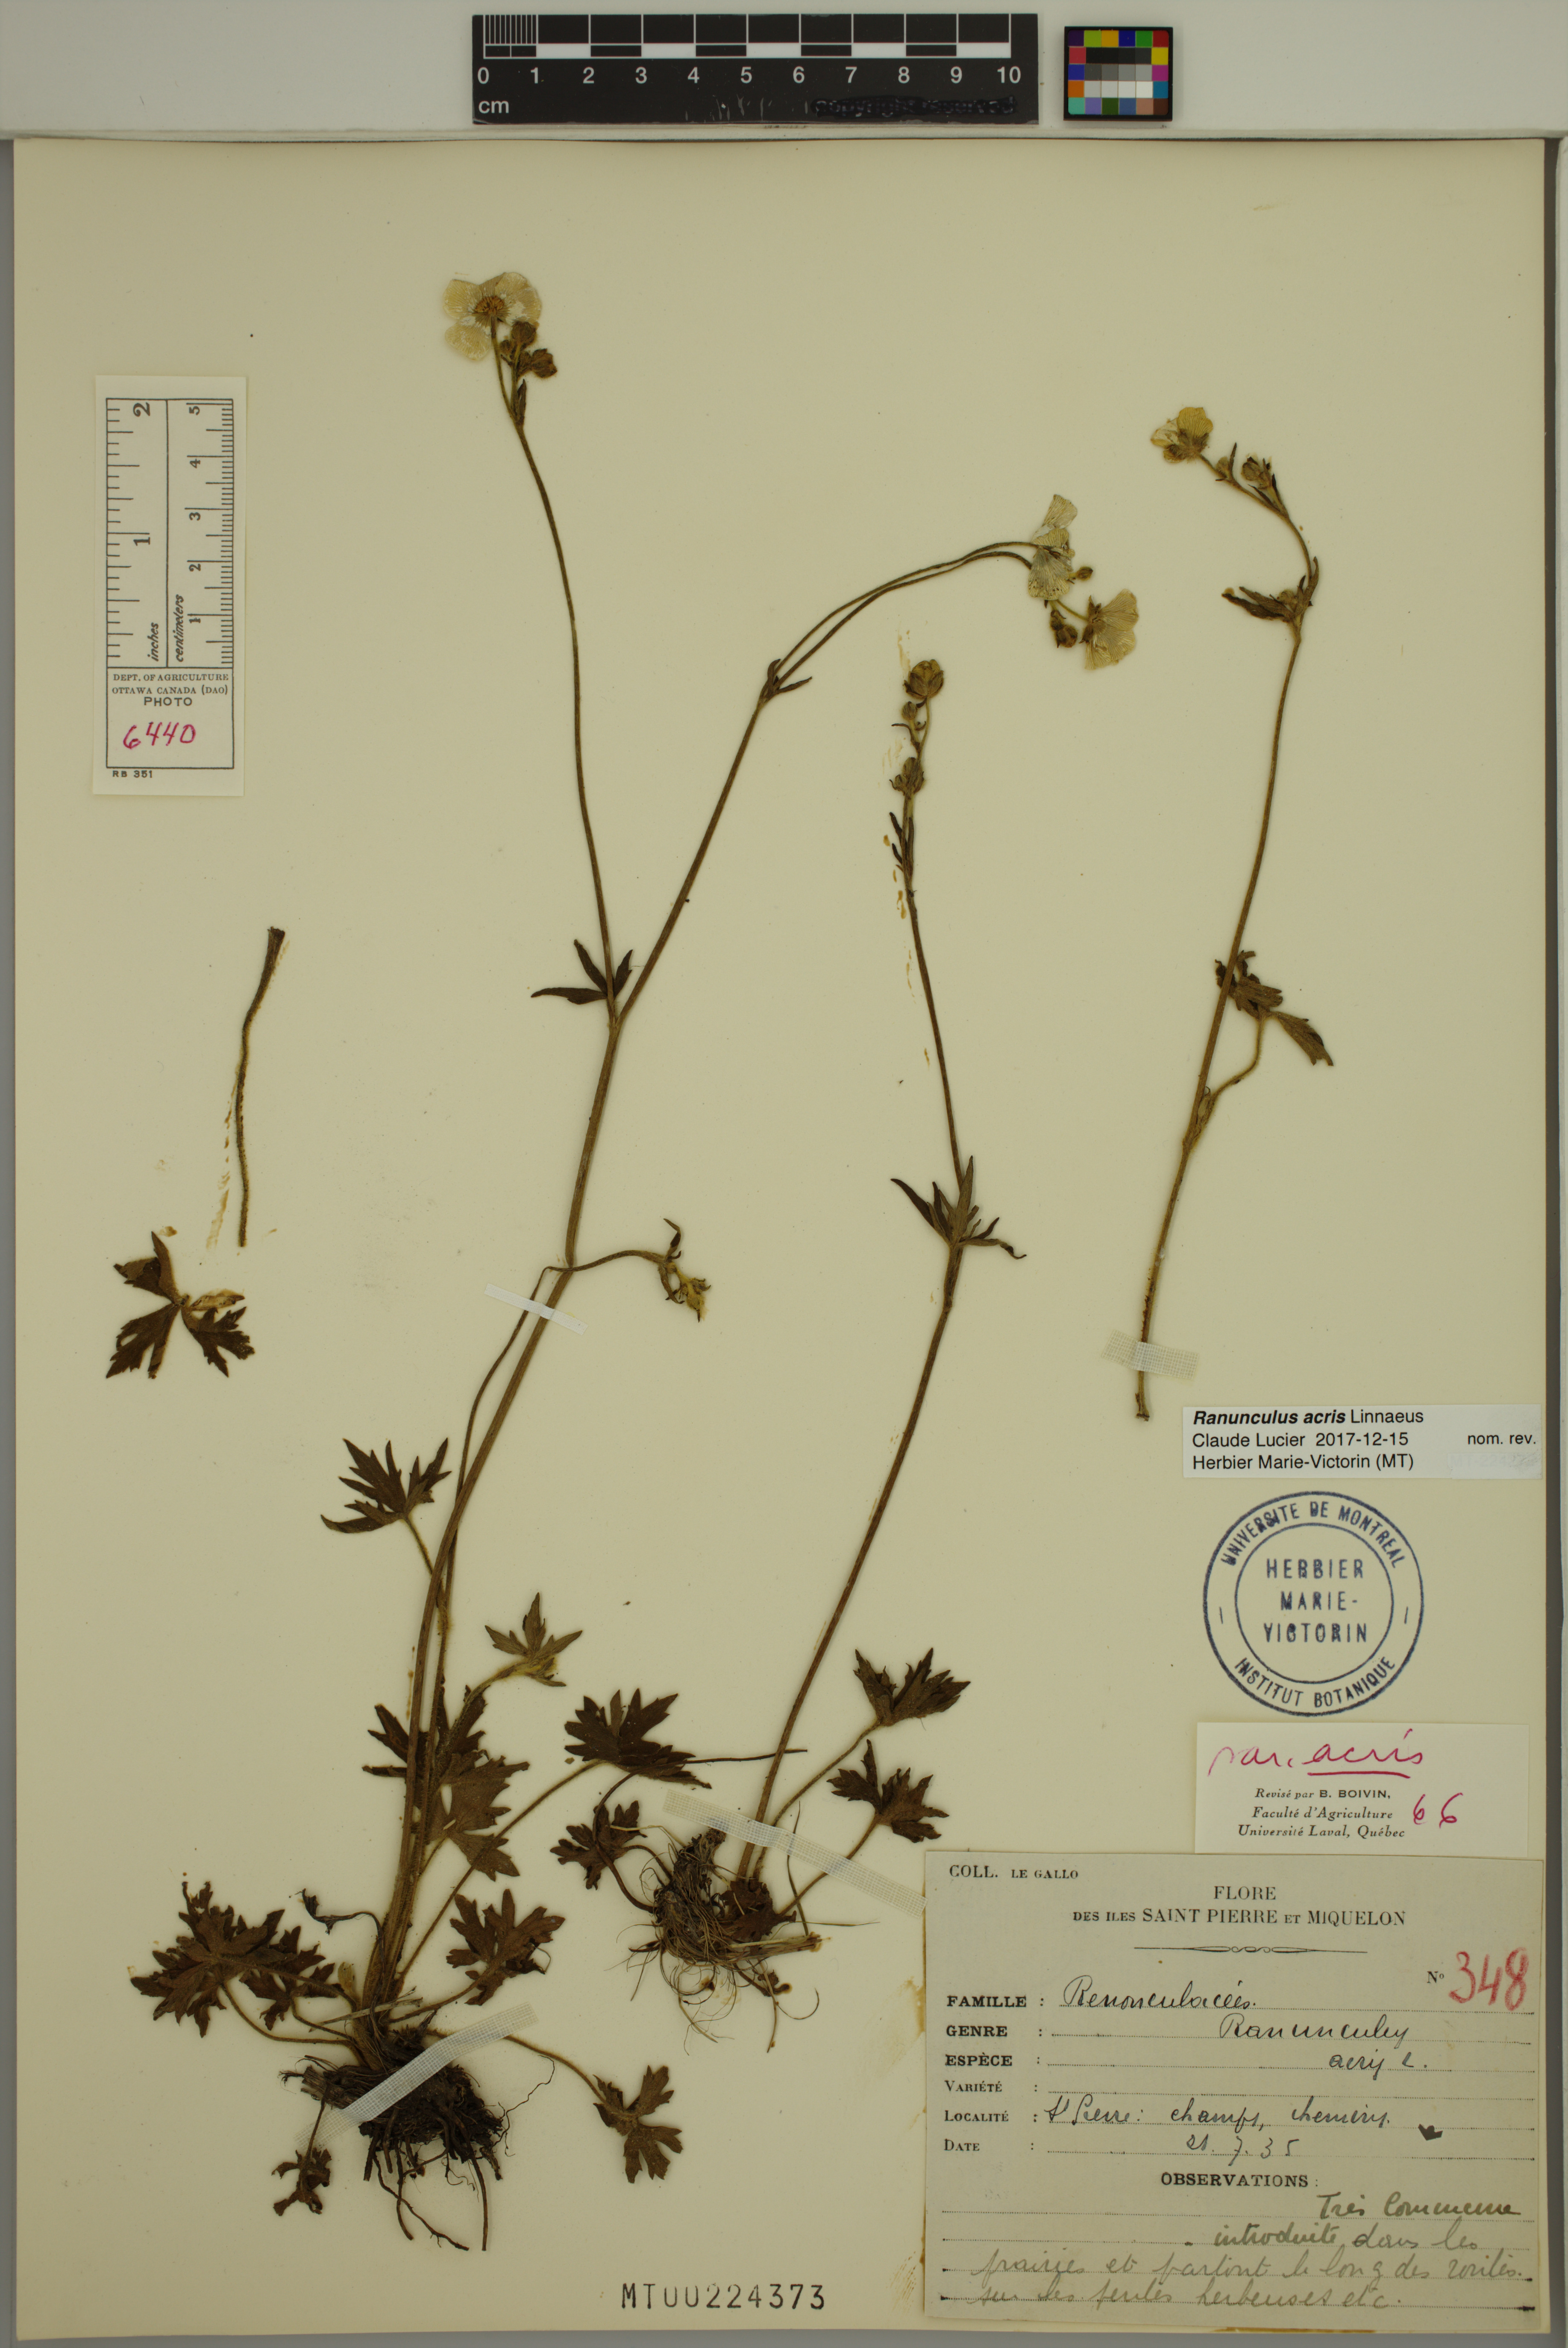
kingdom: Plantae
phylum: Tracheophyta
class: Magnoliopsida
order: Ranunculales
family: Ranunculaceae
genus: Ranunculus
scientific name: Ranunculus acris
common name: Meadow buttercup
